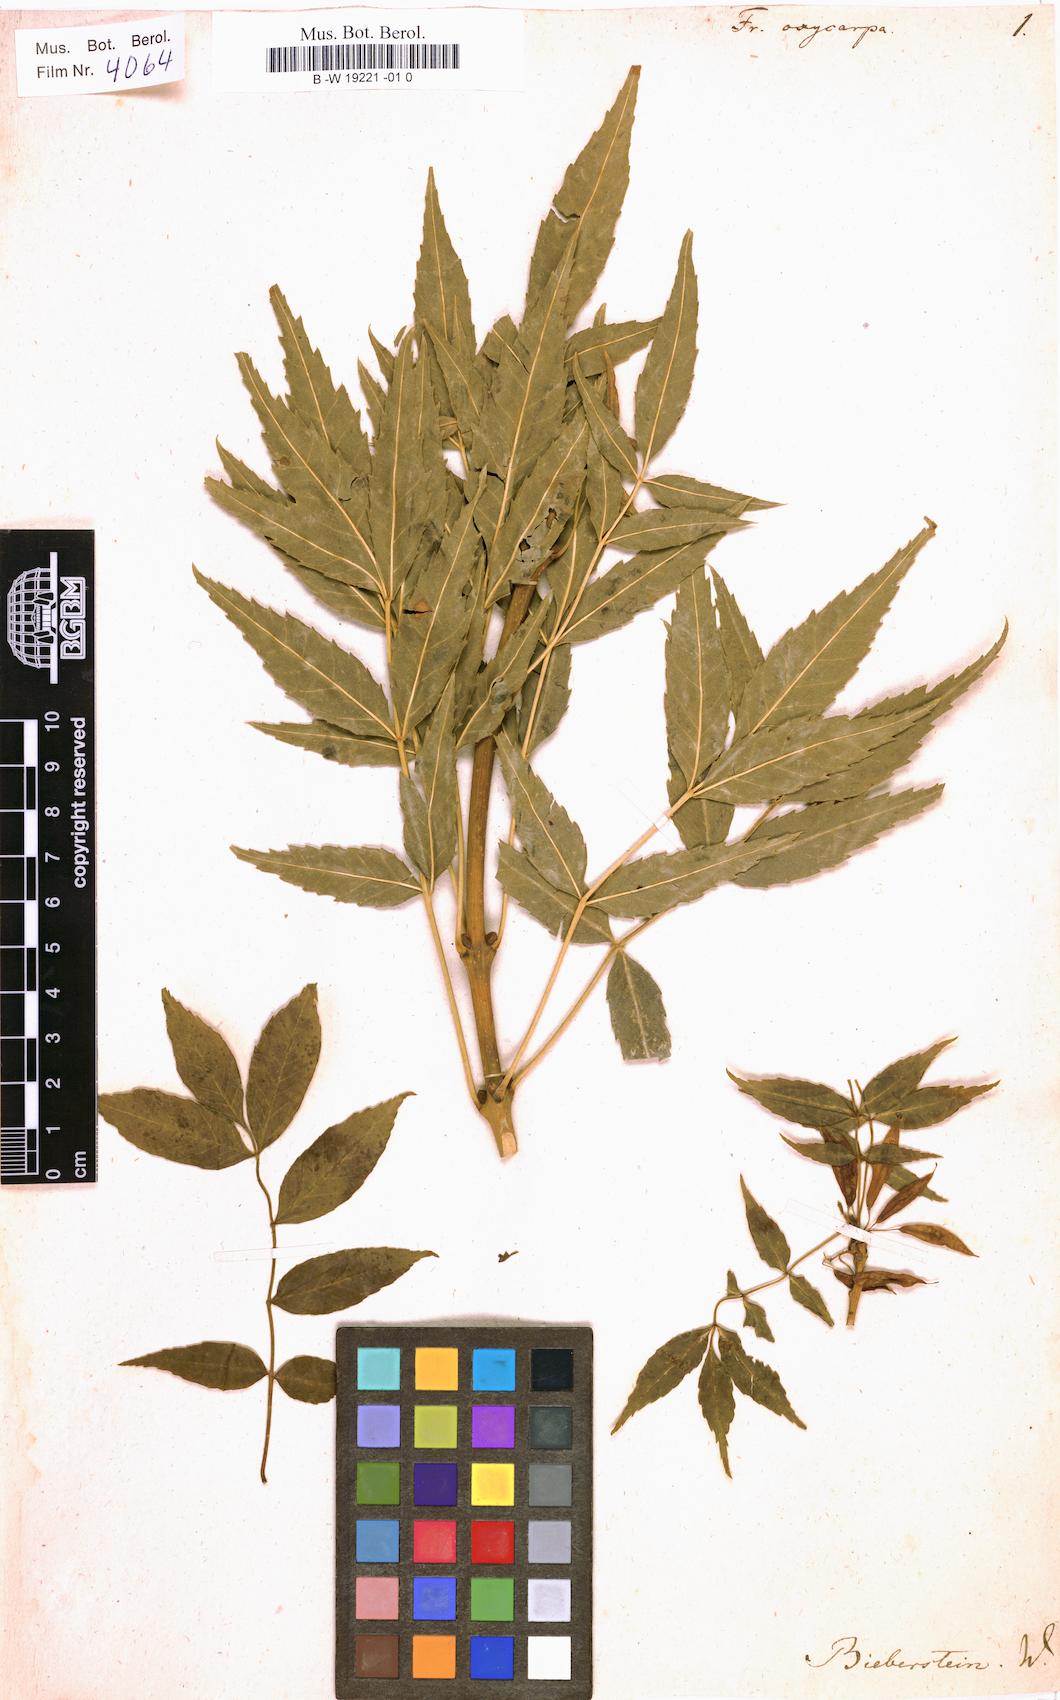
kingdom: Plantae
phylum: Tracheophyta
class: Magnoliopsida
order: Lamiales
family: Oleaceae
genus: Fraxinus
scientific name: Fraxinus angustifolia
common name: Narrow-leafed ash
